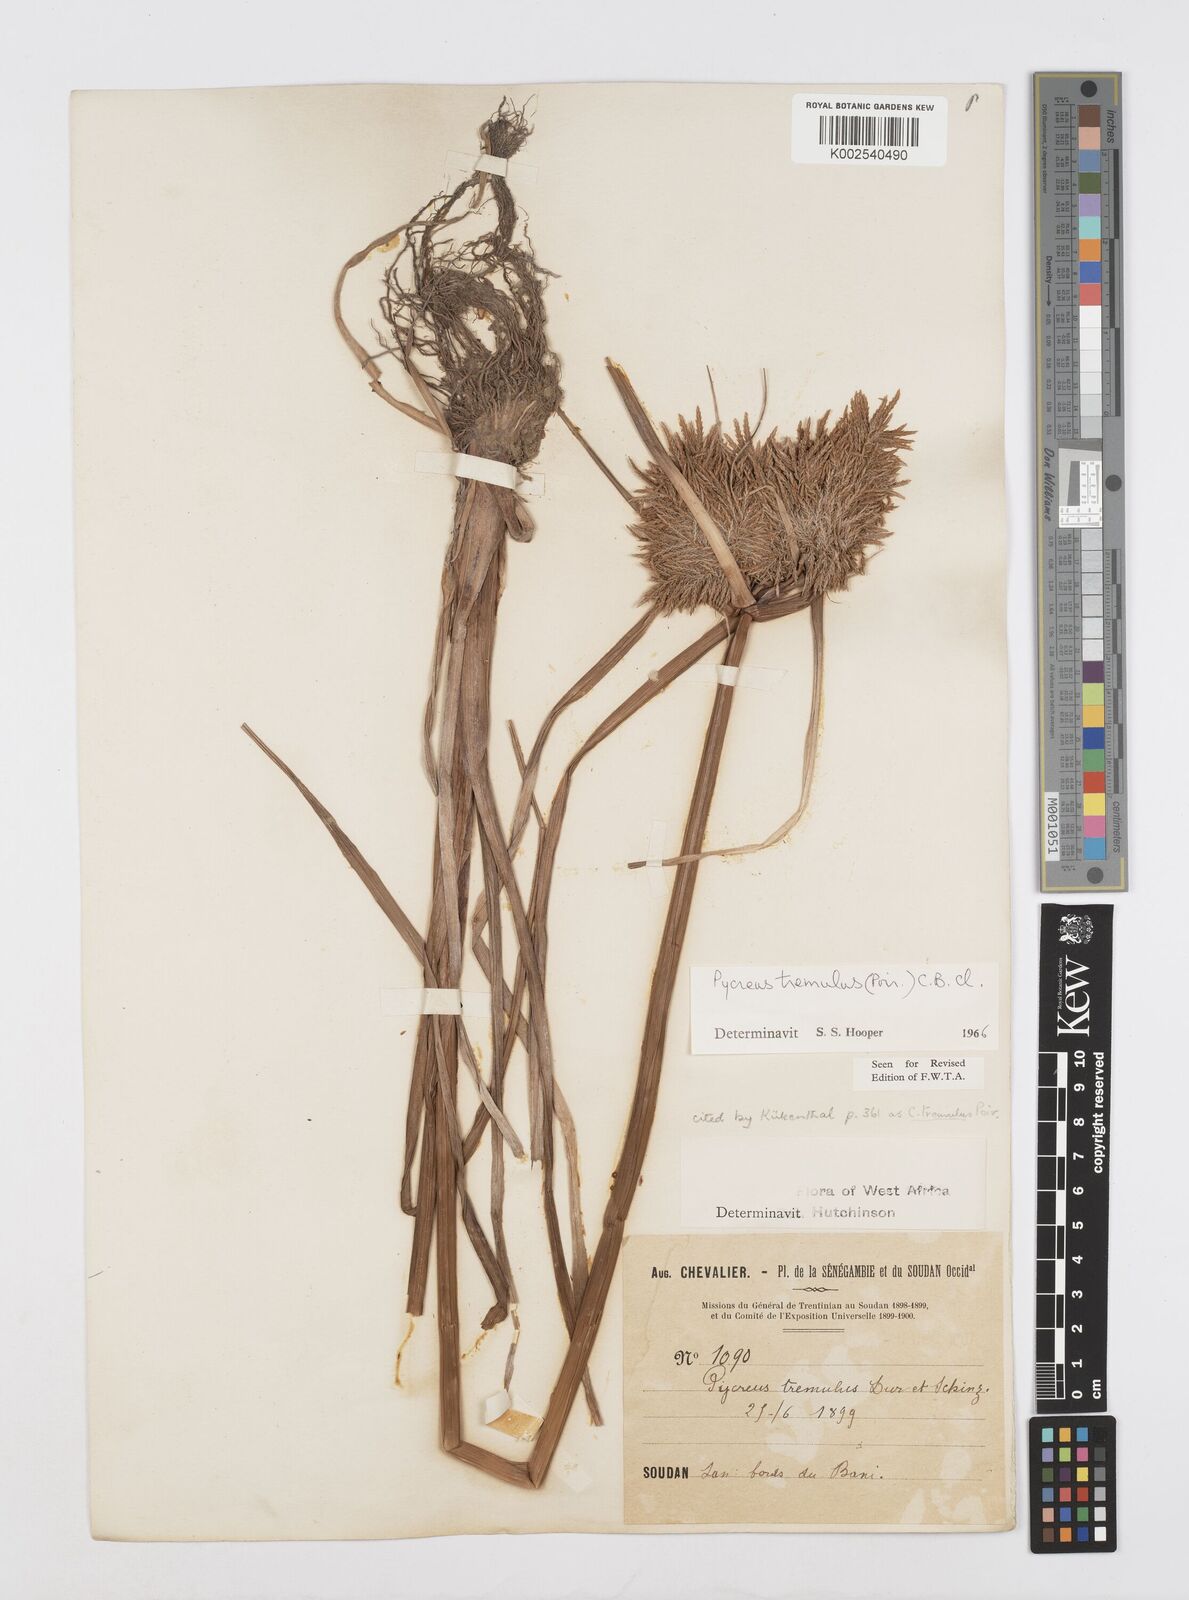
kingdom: Plantae
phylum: Tracheophyta
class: Liliopsida
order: Poales
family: Cyperaceae
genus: Cyperus
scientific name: Cyperus macrostachyos
